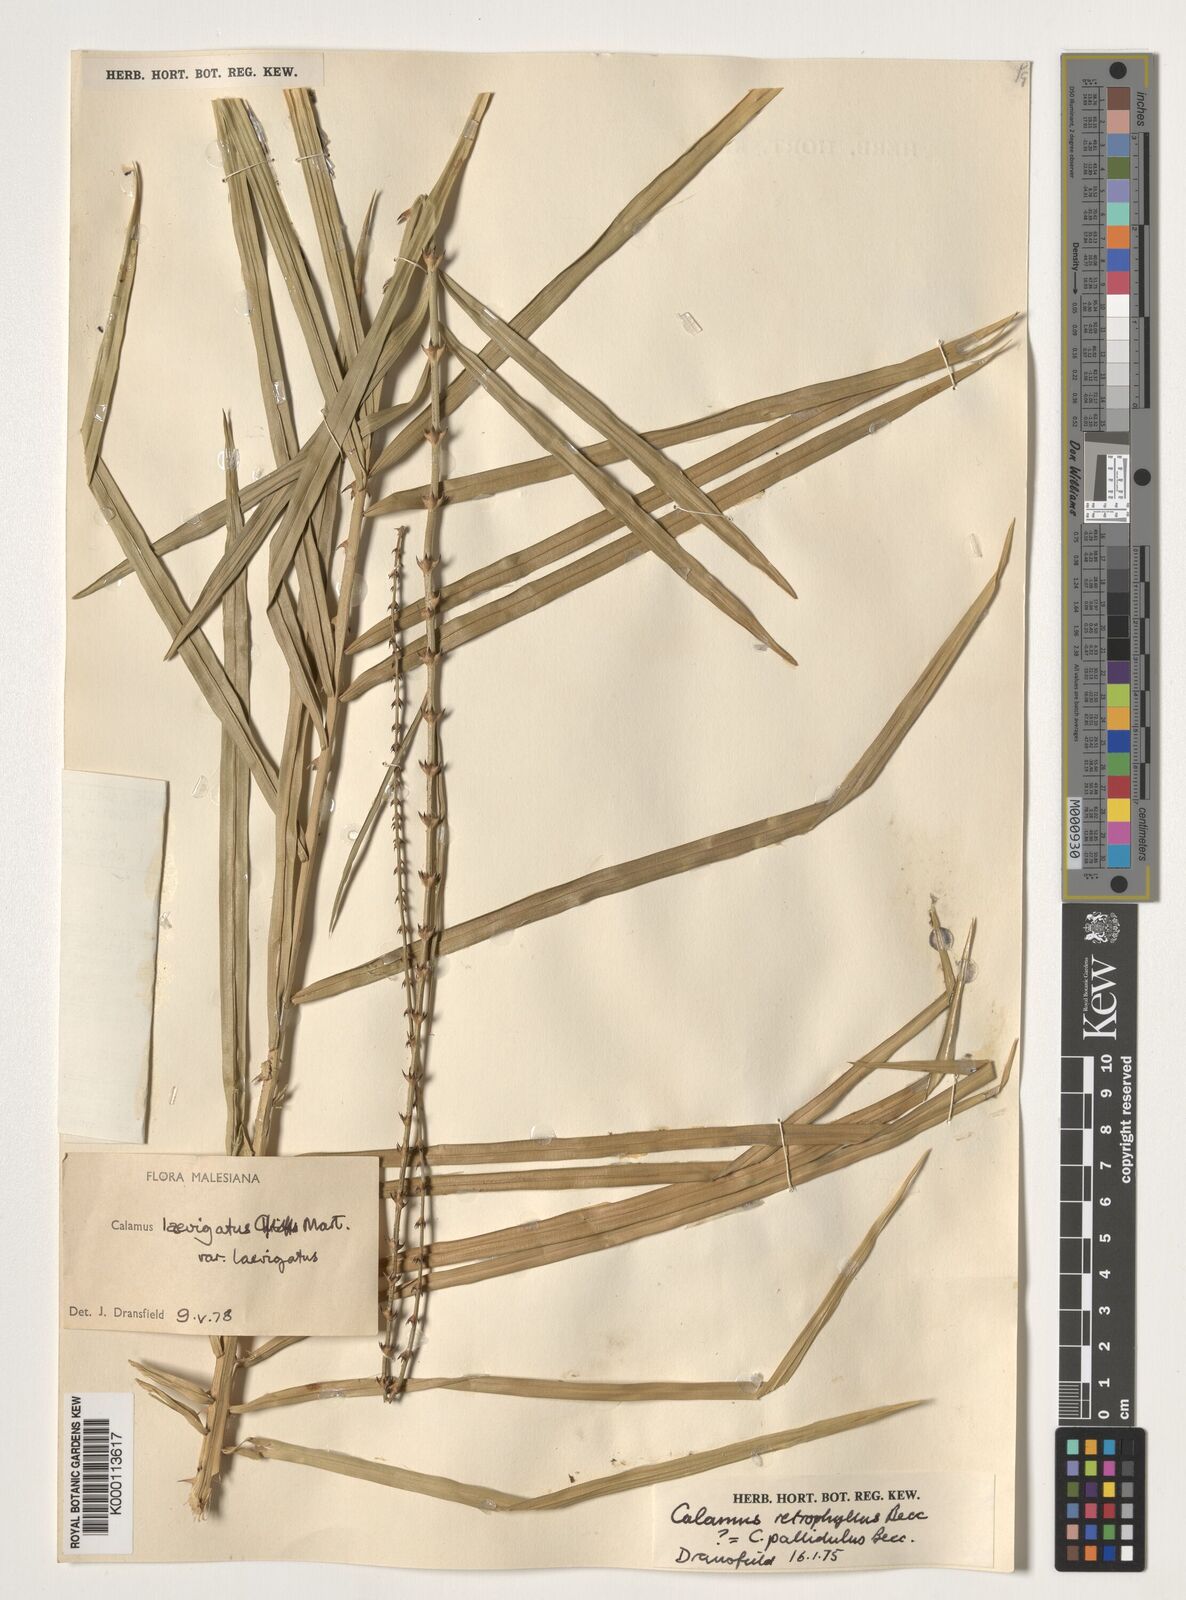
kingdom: Plantae
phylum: Tracheophyta
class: Liliopsida
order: Arecales
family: Arecaceae
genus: Calamus
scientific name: Calamus
